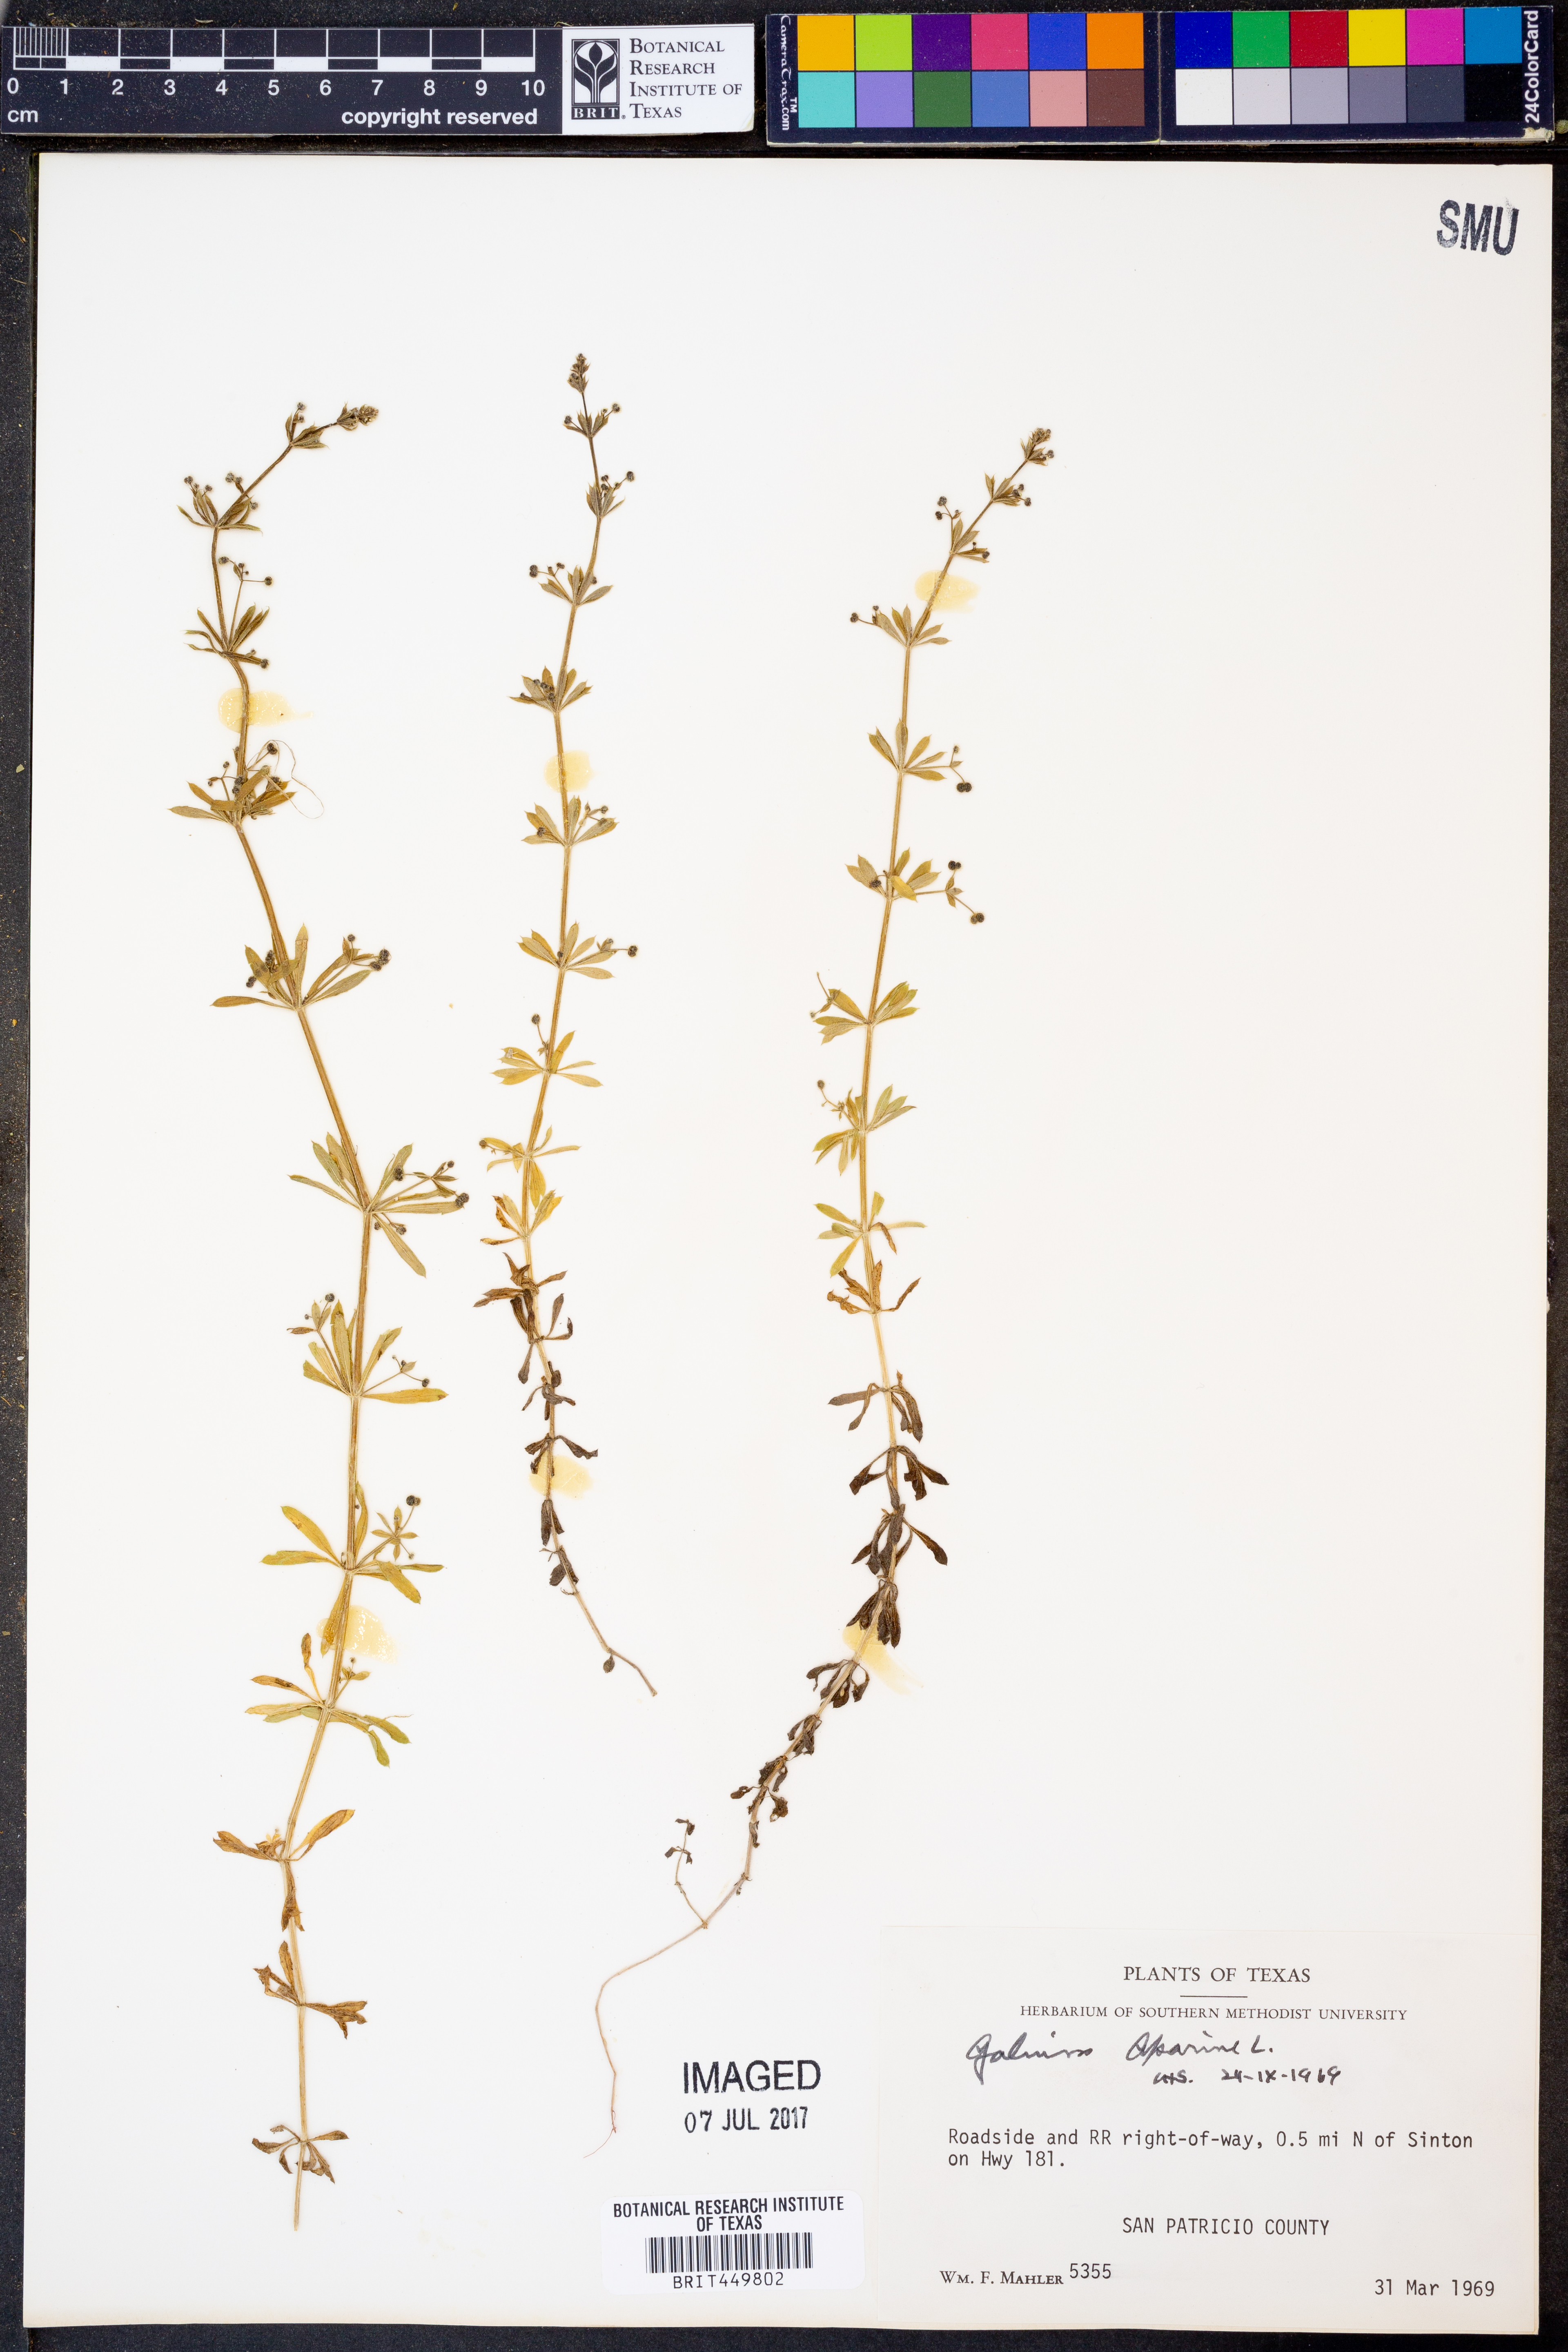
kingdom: Plantae
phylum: Tracheophyta
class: Magnoliopsida
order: Gentianales
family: Rubiaceae
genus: Galium
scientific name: Galium aparine
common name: Cleavers
